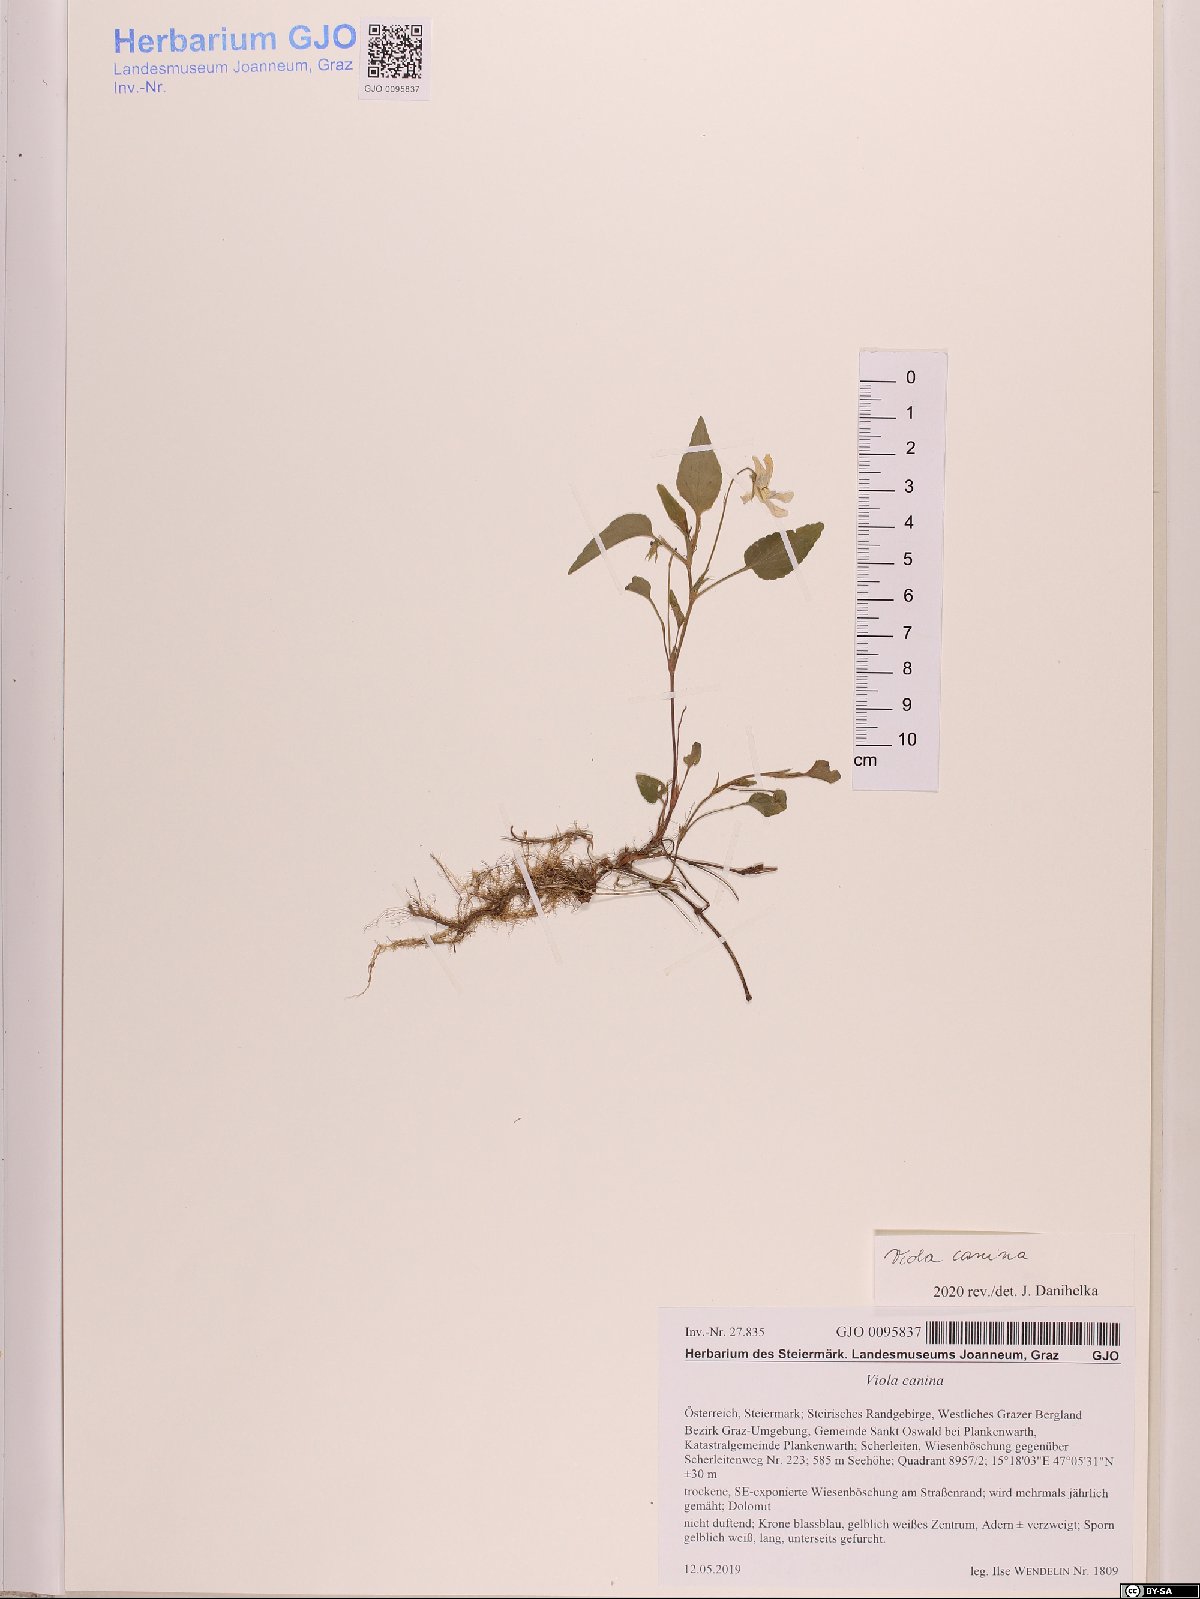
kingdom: Plantae
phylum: Tracheophyta
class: Magnoliopsida
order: Malpighiales
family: Violaceae
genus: Viola
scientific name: Viola canina
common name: Heath dog-violet
